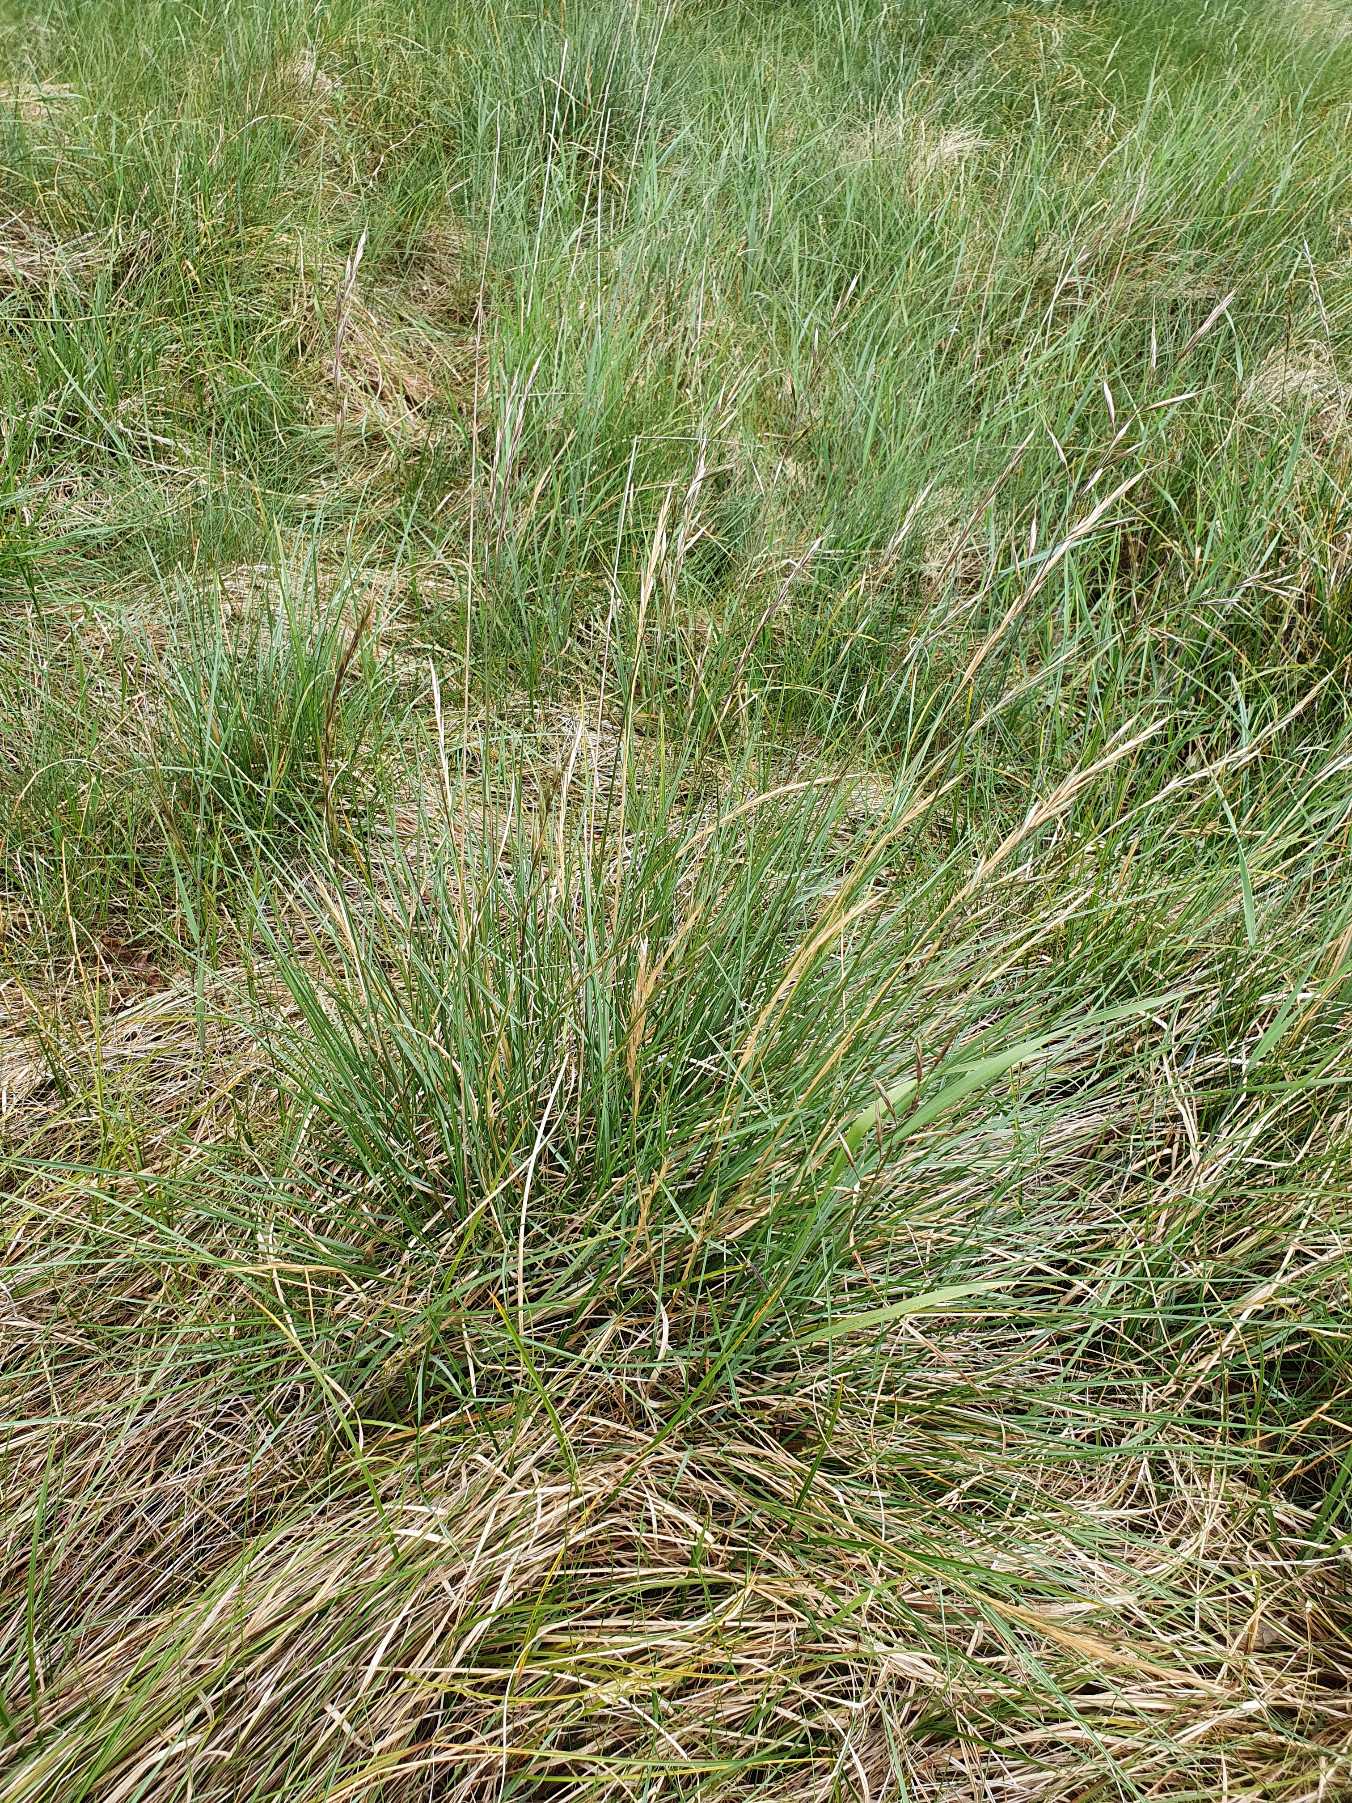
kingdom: Plantae
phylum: Tracheophyta
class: Liliopsida
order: Poales
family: Poaceae
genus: Helictochloa
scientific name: Helictochloa pratensis
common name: Eng-havre
